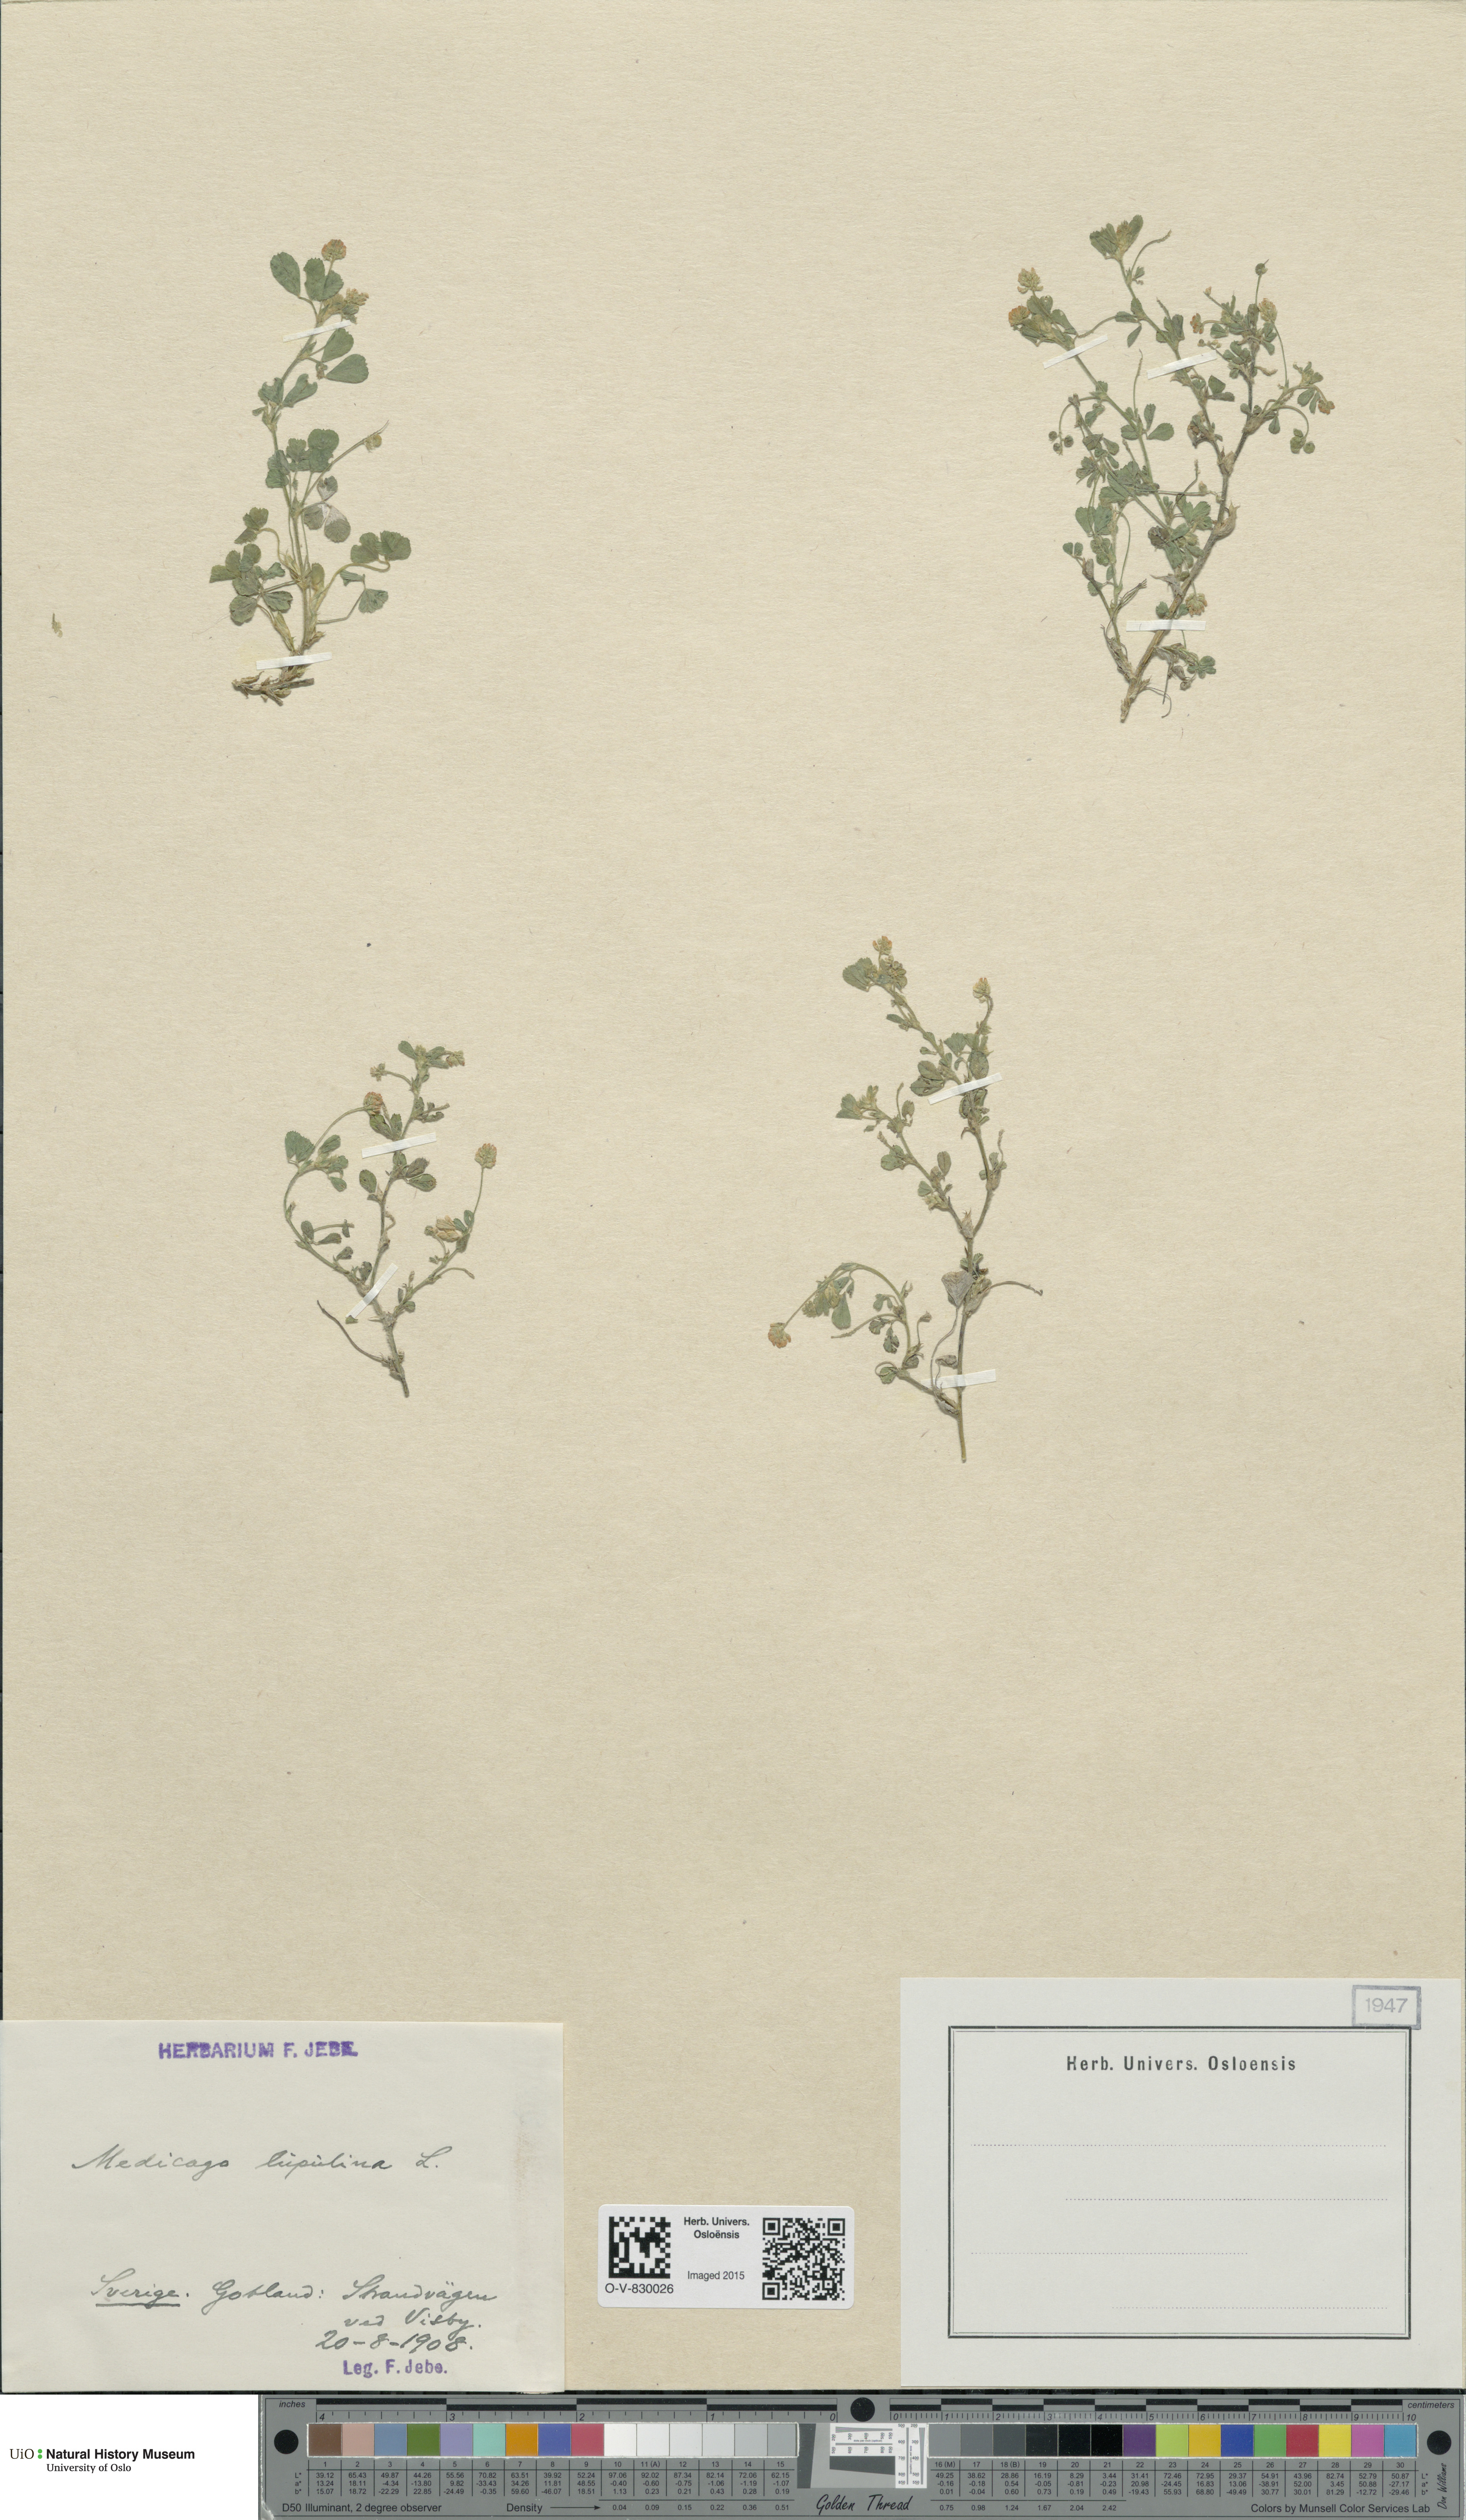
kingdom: Plantae
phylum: Tracheophyta
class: Magnoliopsida
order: Fabales
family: Fabaceae
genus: Medicago
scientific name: Medicago lupulina
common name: Black medick
